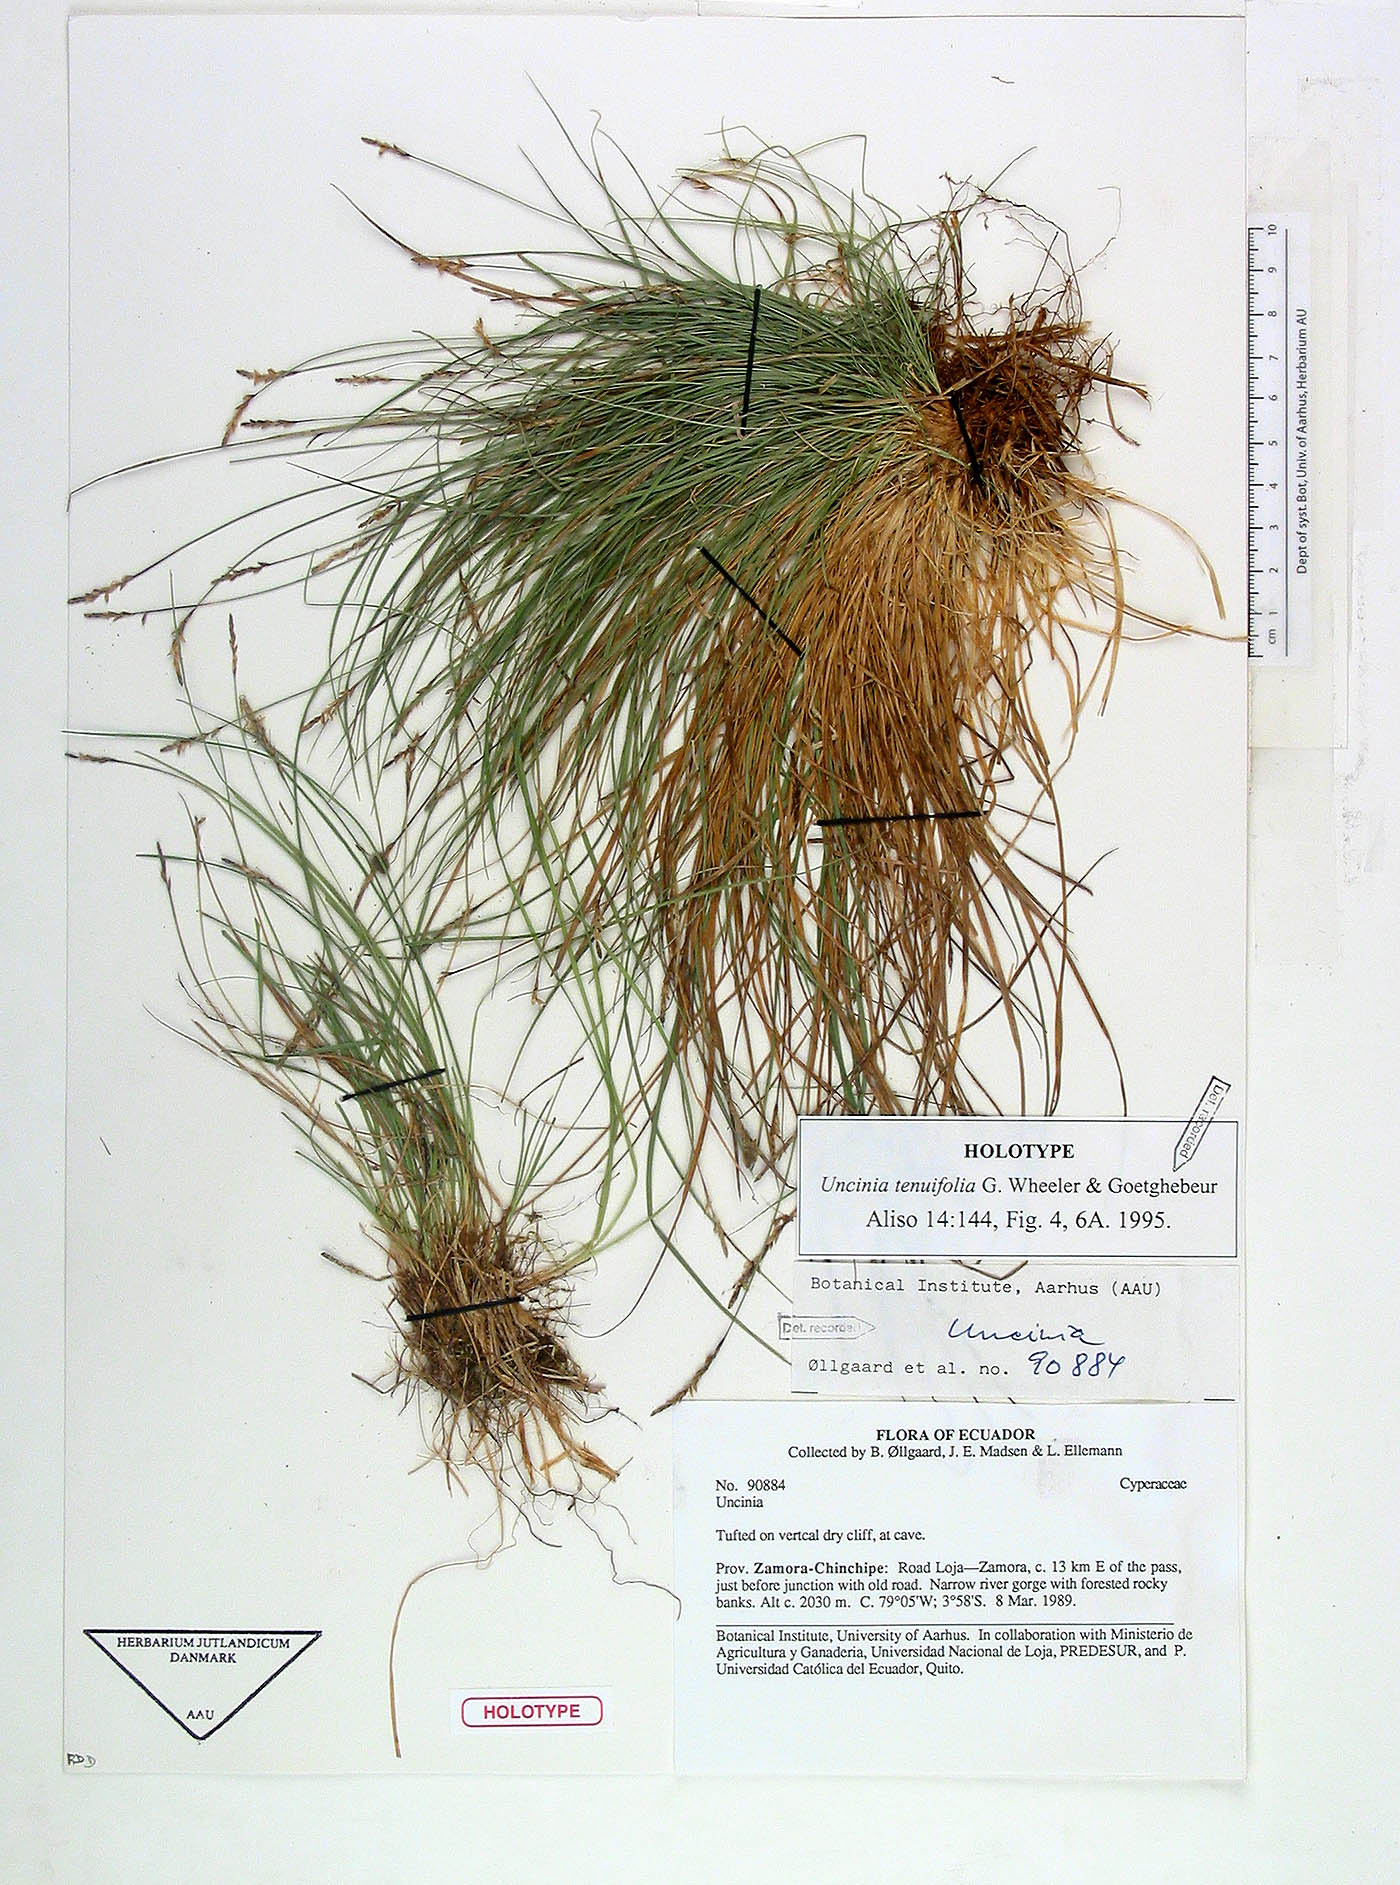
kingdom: Plantae
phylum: Tracheophyta
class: Liliopsida
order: Poales
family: Cyperaceae
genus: Carex
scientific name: Carex goetghebeurii
